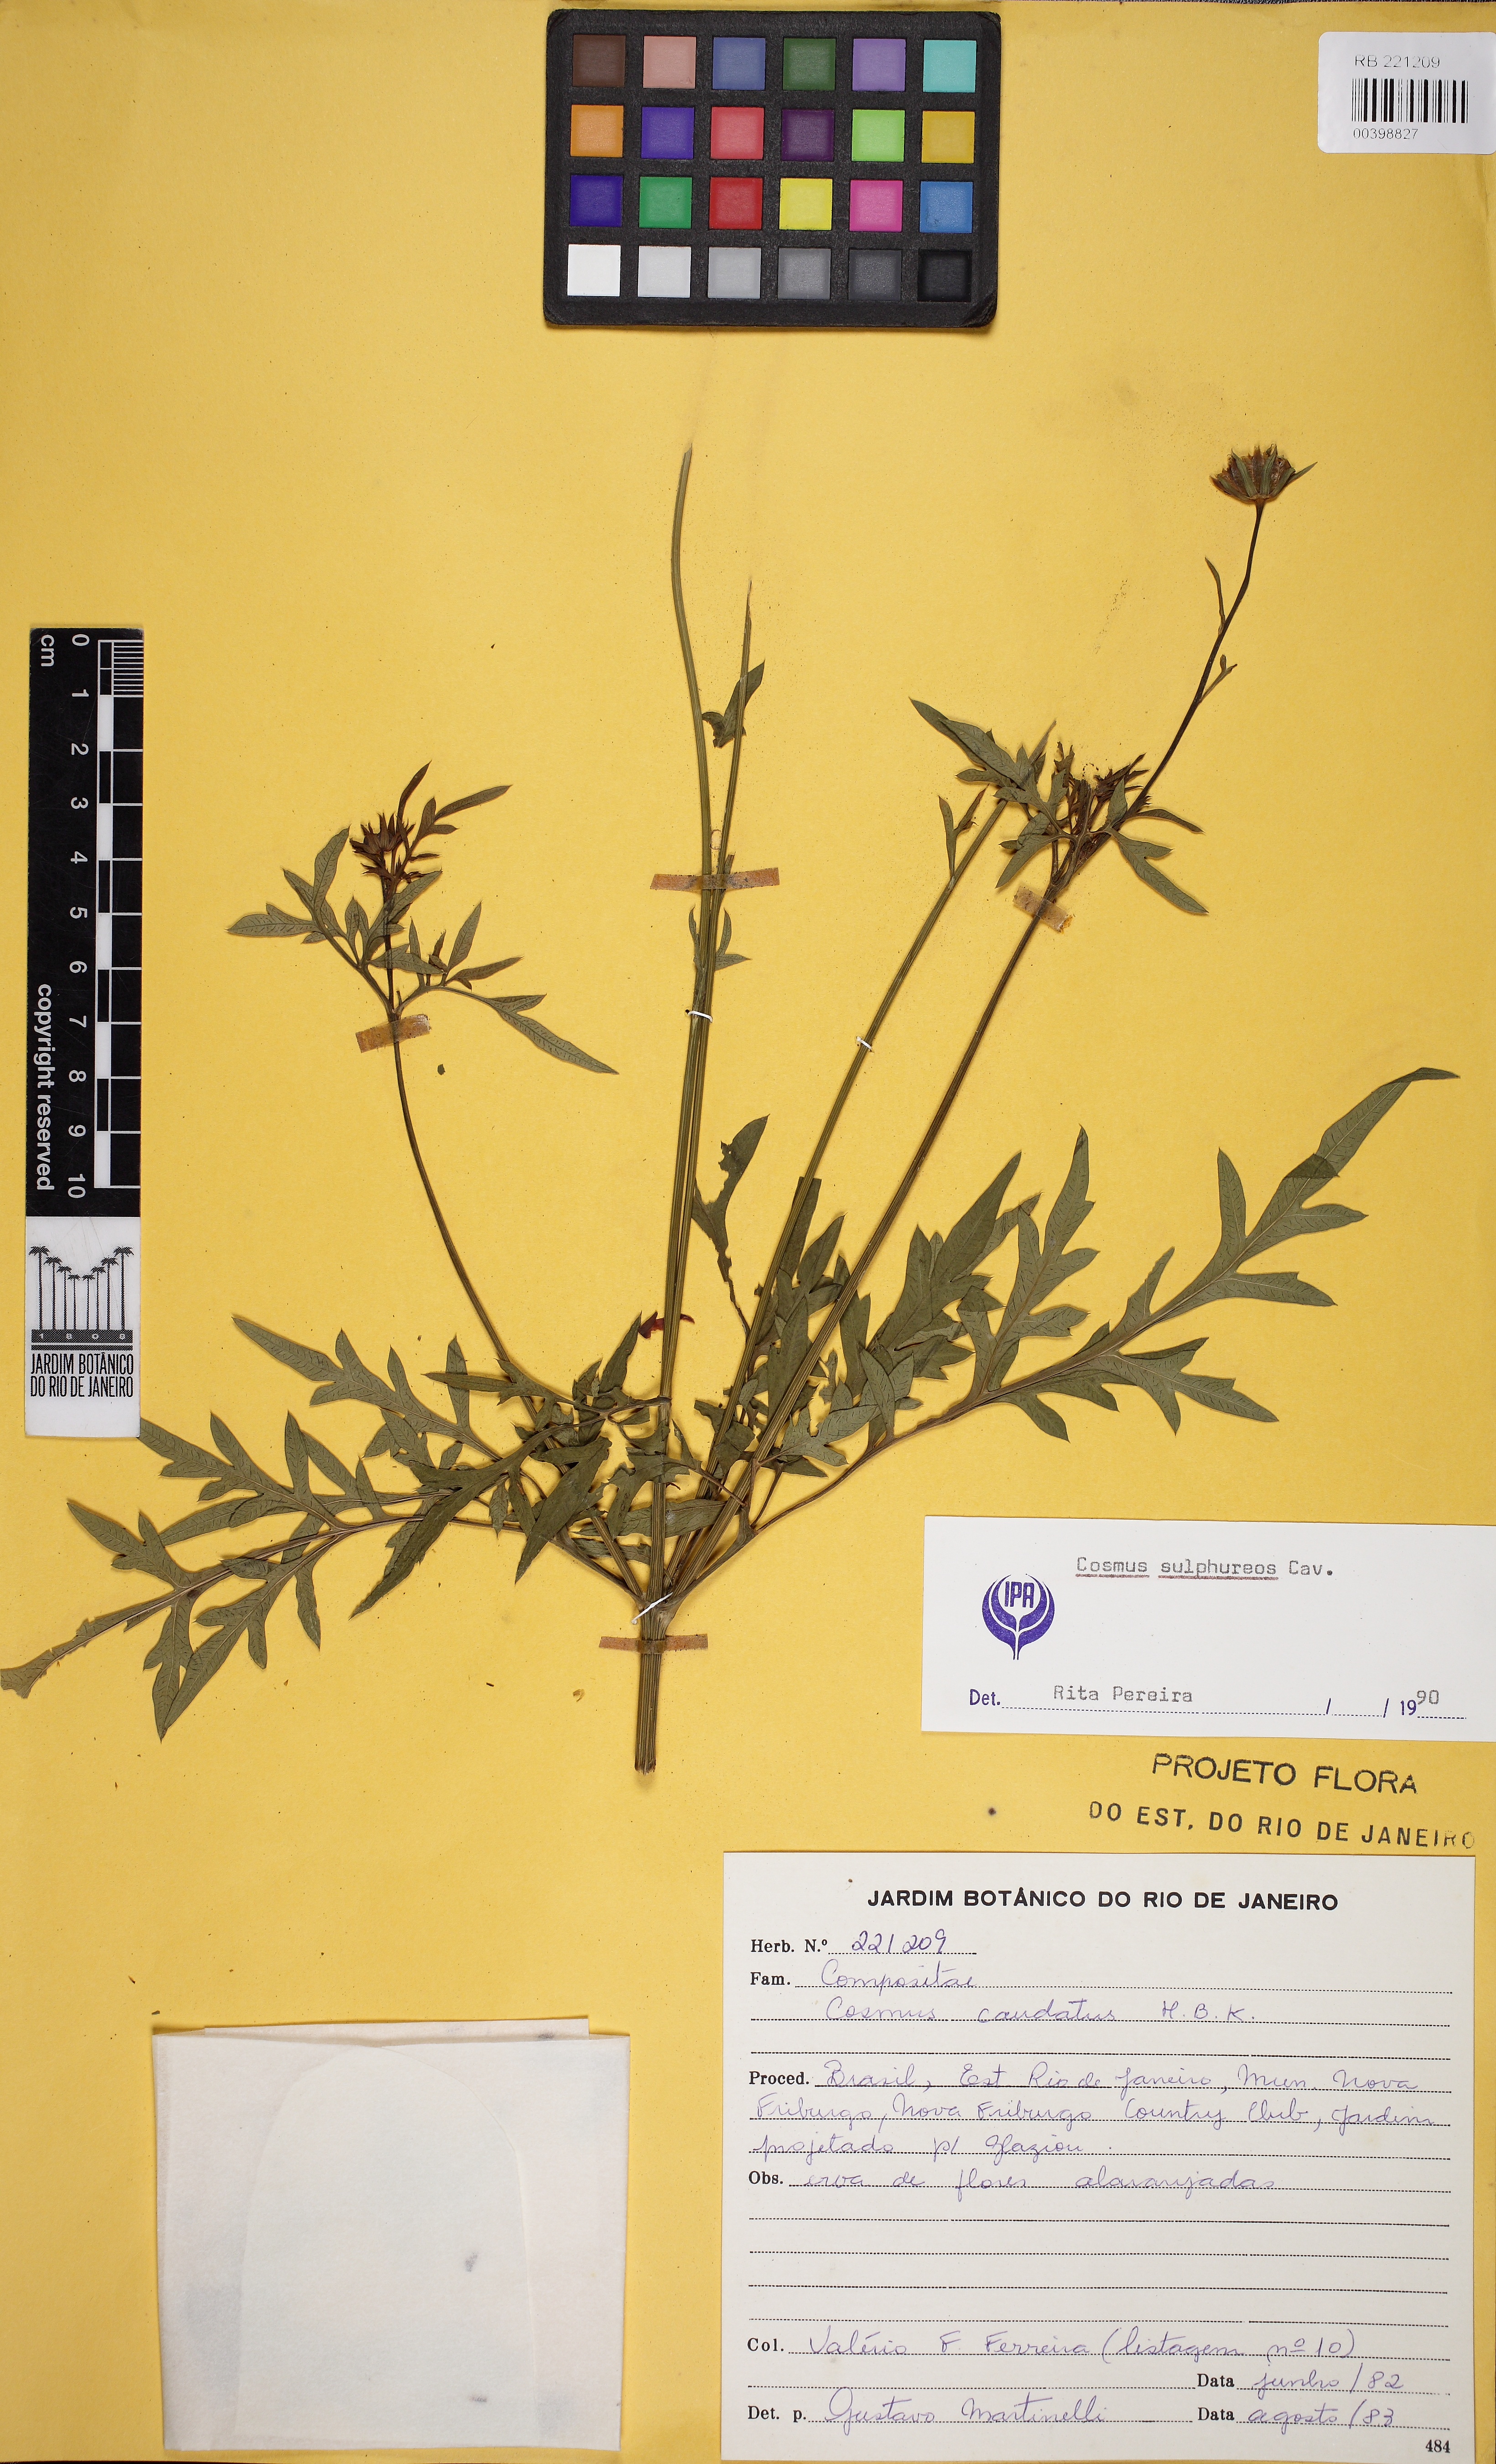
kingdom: Plantae
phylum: Tracheophyta
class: Magnoliopsida
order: Asterales
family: Asteraceae
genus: Cosmos
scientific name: Cosmos sulphureus
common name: Sulphur cosmos
